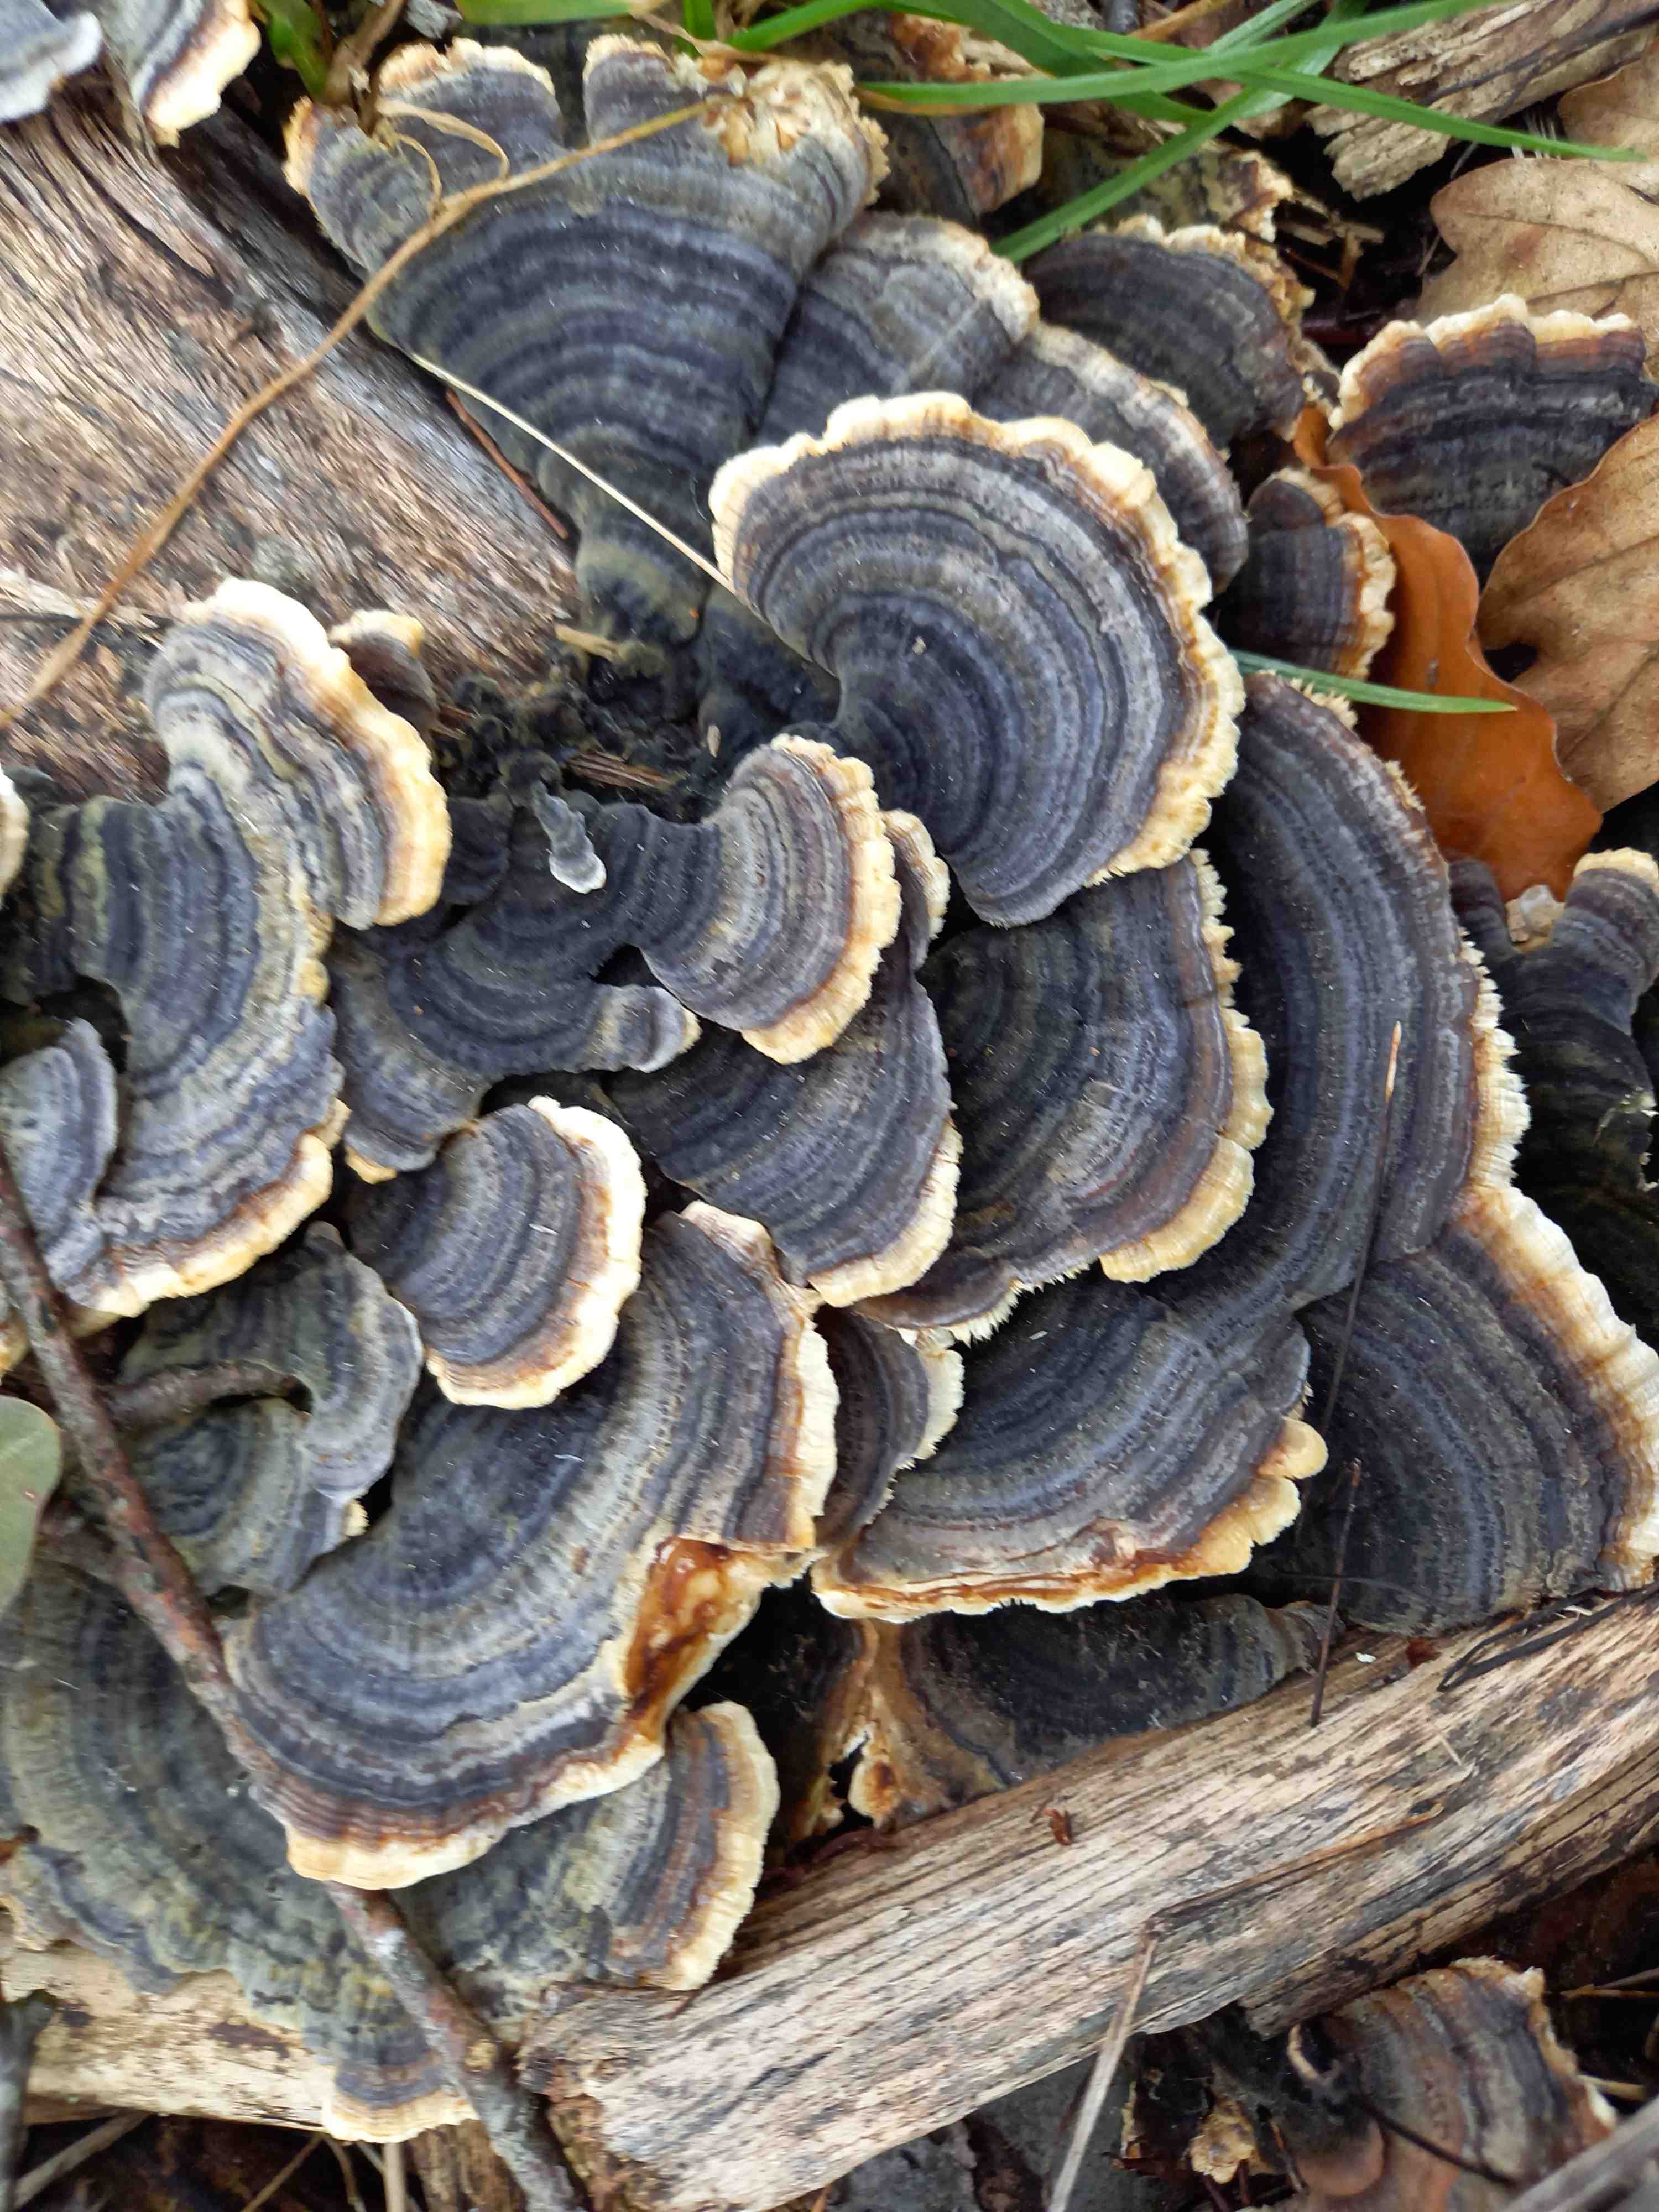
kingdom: Fungi
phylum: Basidiomycota
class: Agaricomycetes
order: Polyporales
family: Polyporaceae
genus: Trametes
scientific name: Trametes versicolor
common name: broget læderporesvamp
